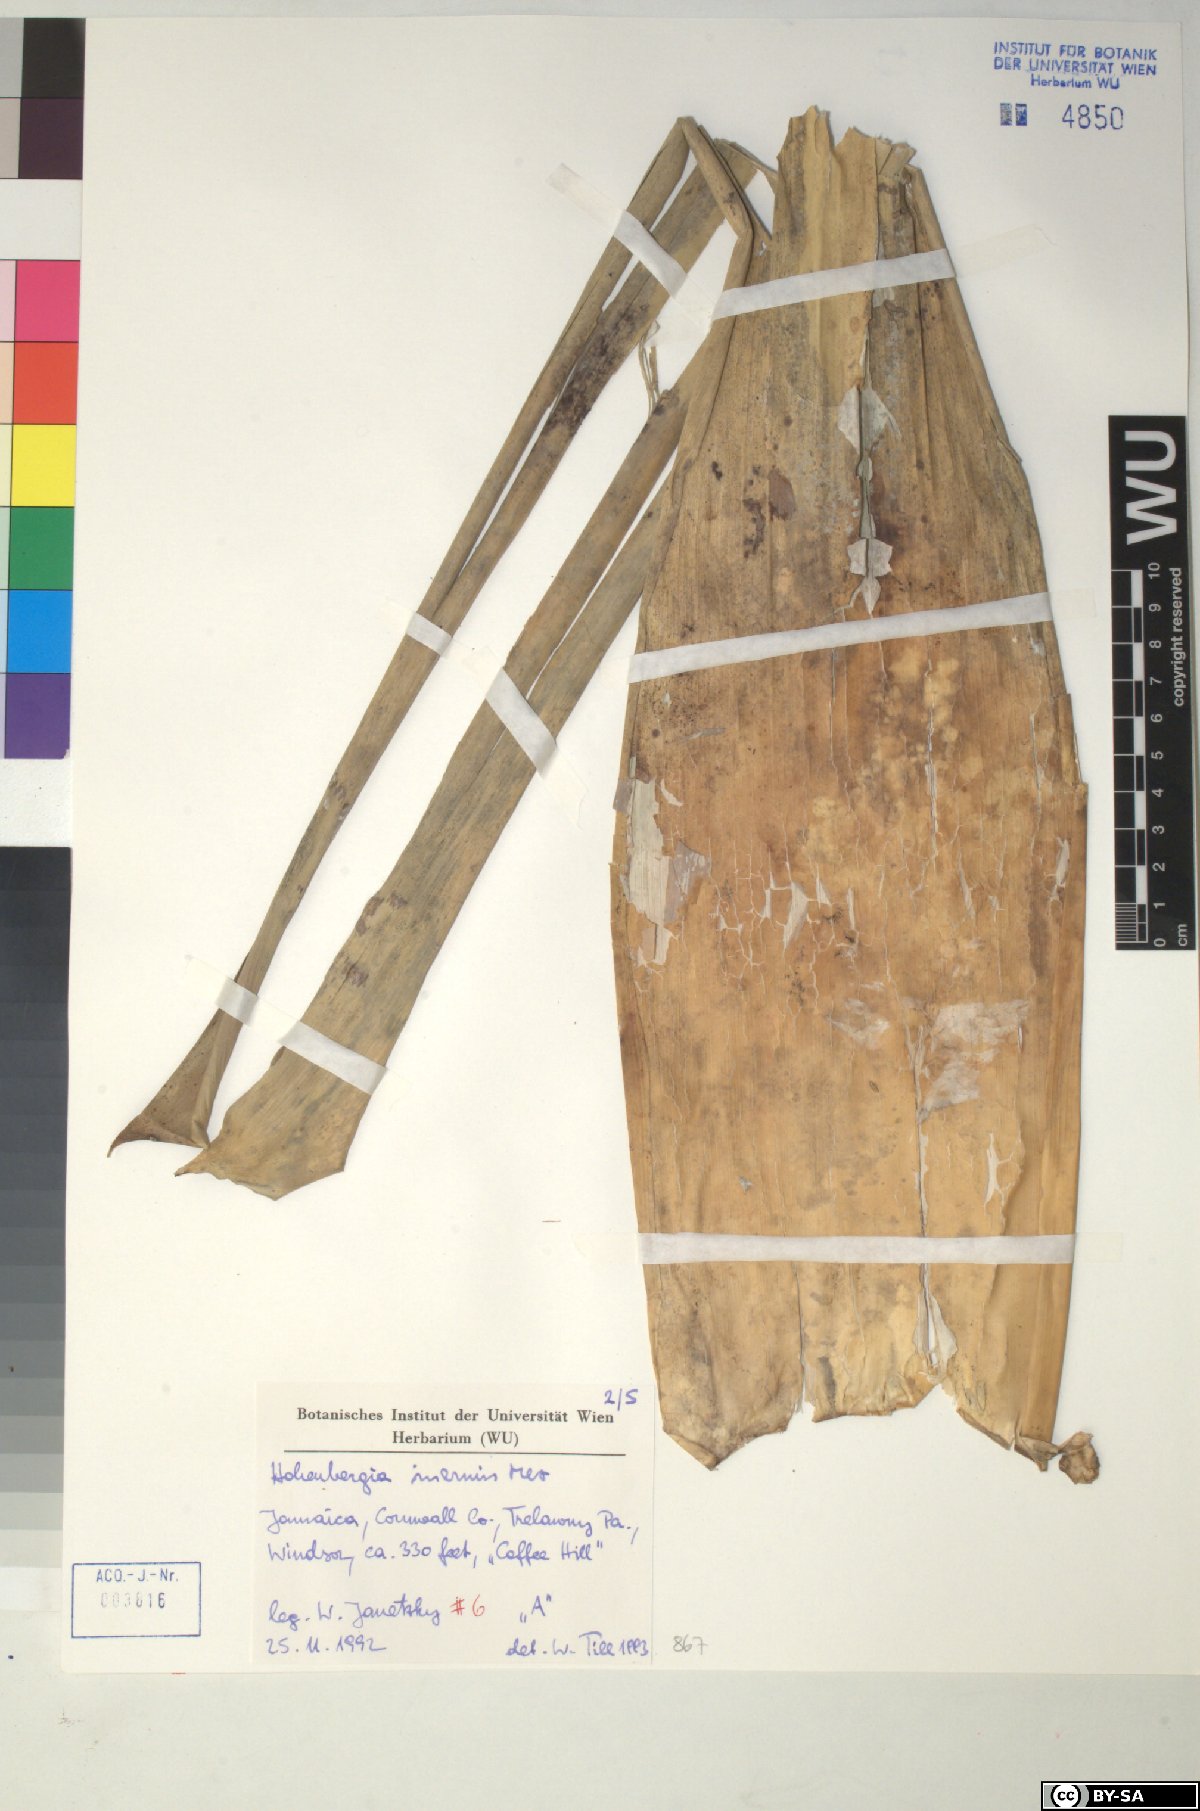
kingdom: Plantae
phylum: Tracheophyta
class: Liliopsida
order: Poales
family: Bromeliaceae
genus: Wittmackia
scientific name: Wittmackia inermis
